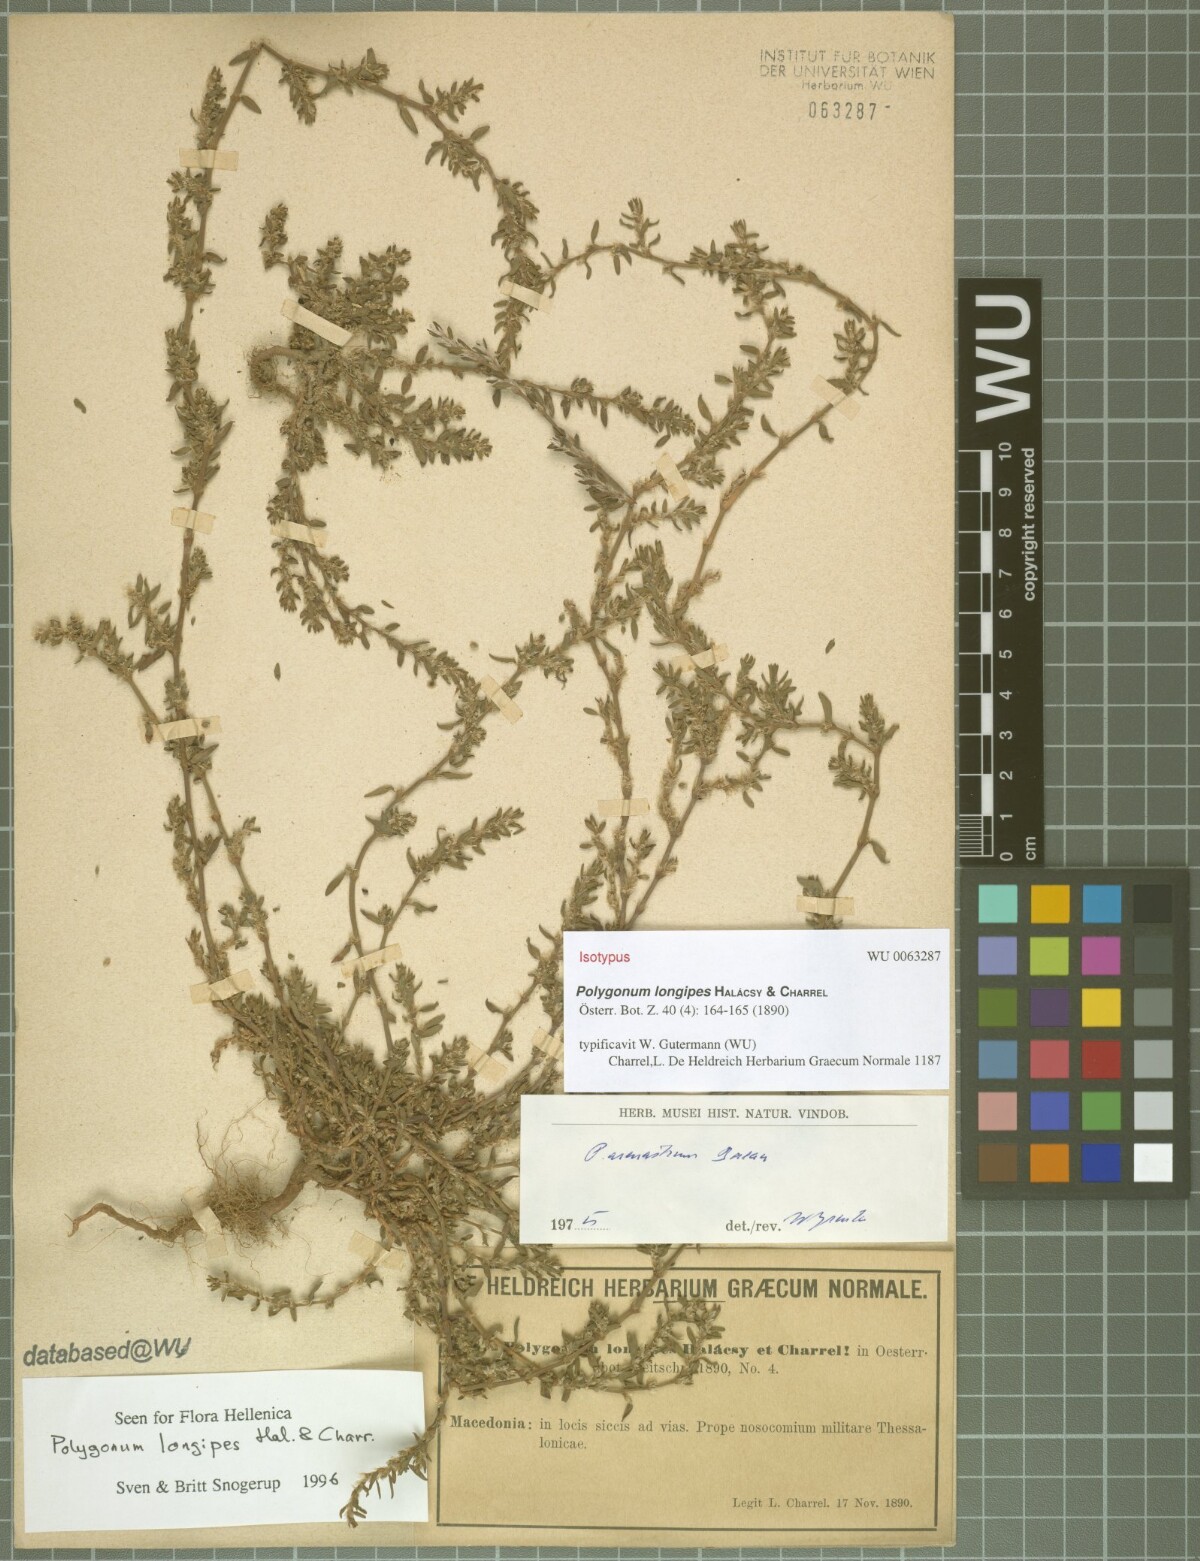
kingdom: Plantae
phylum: Tracheophyta
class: Magnoliopsida
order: Caryophyllales
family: Polygonaceae
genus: Polygonum
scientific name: Polygonum longipes
